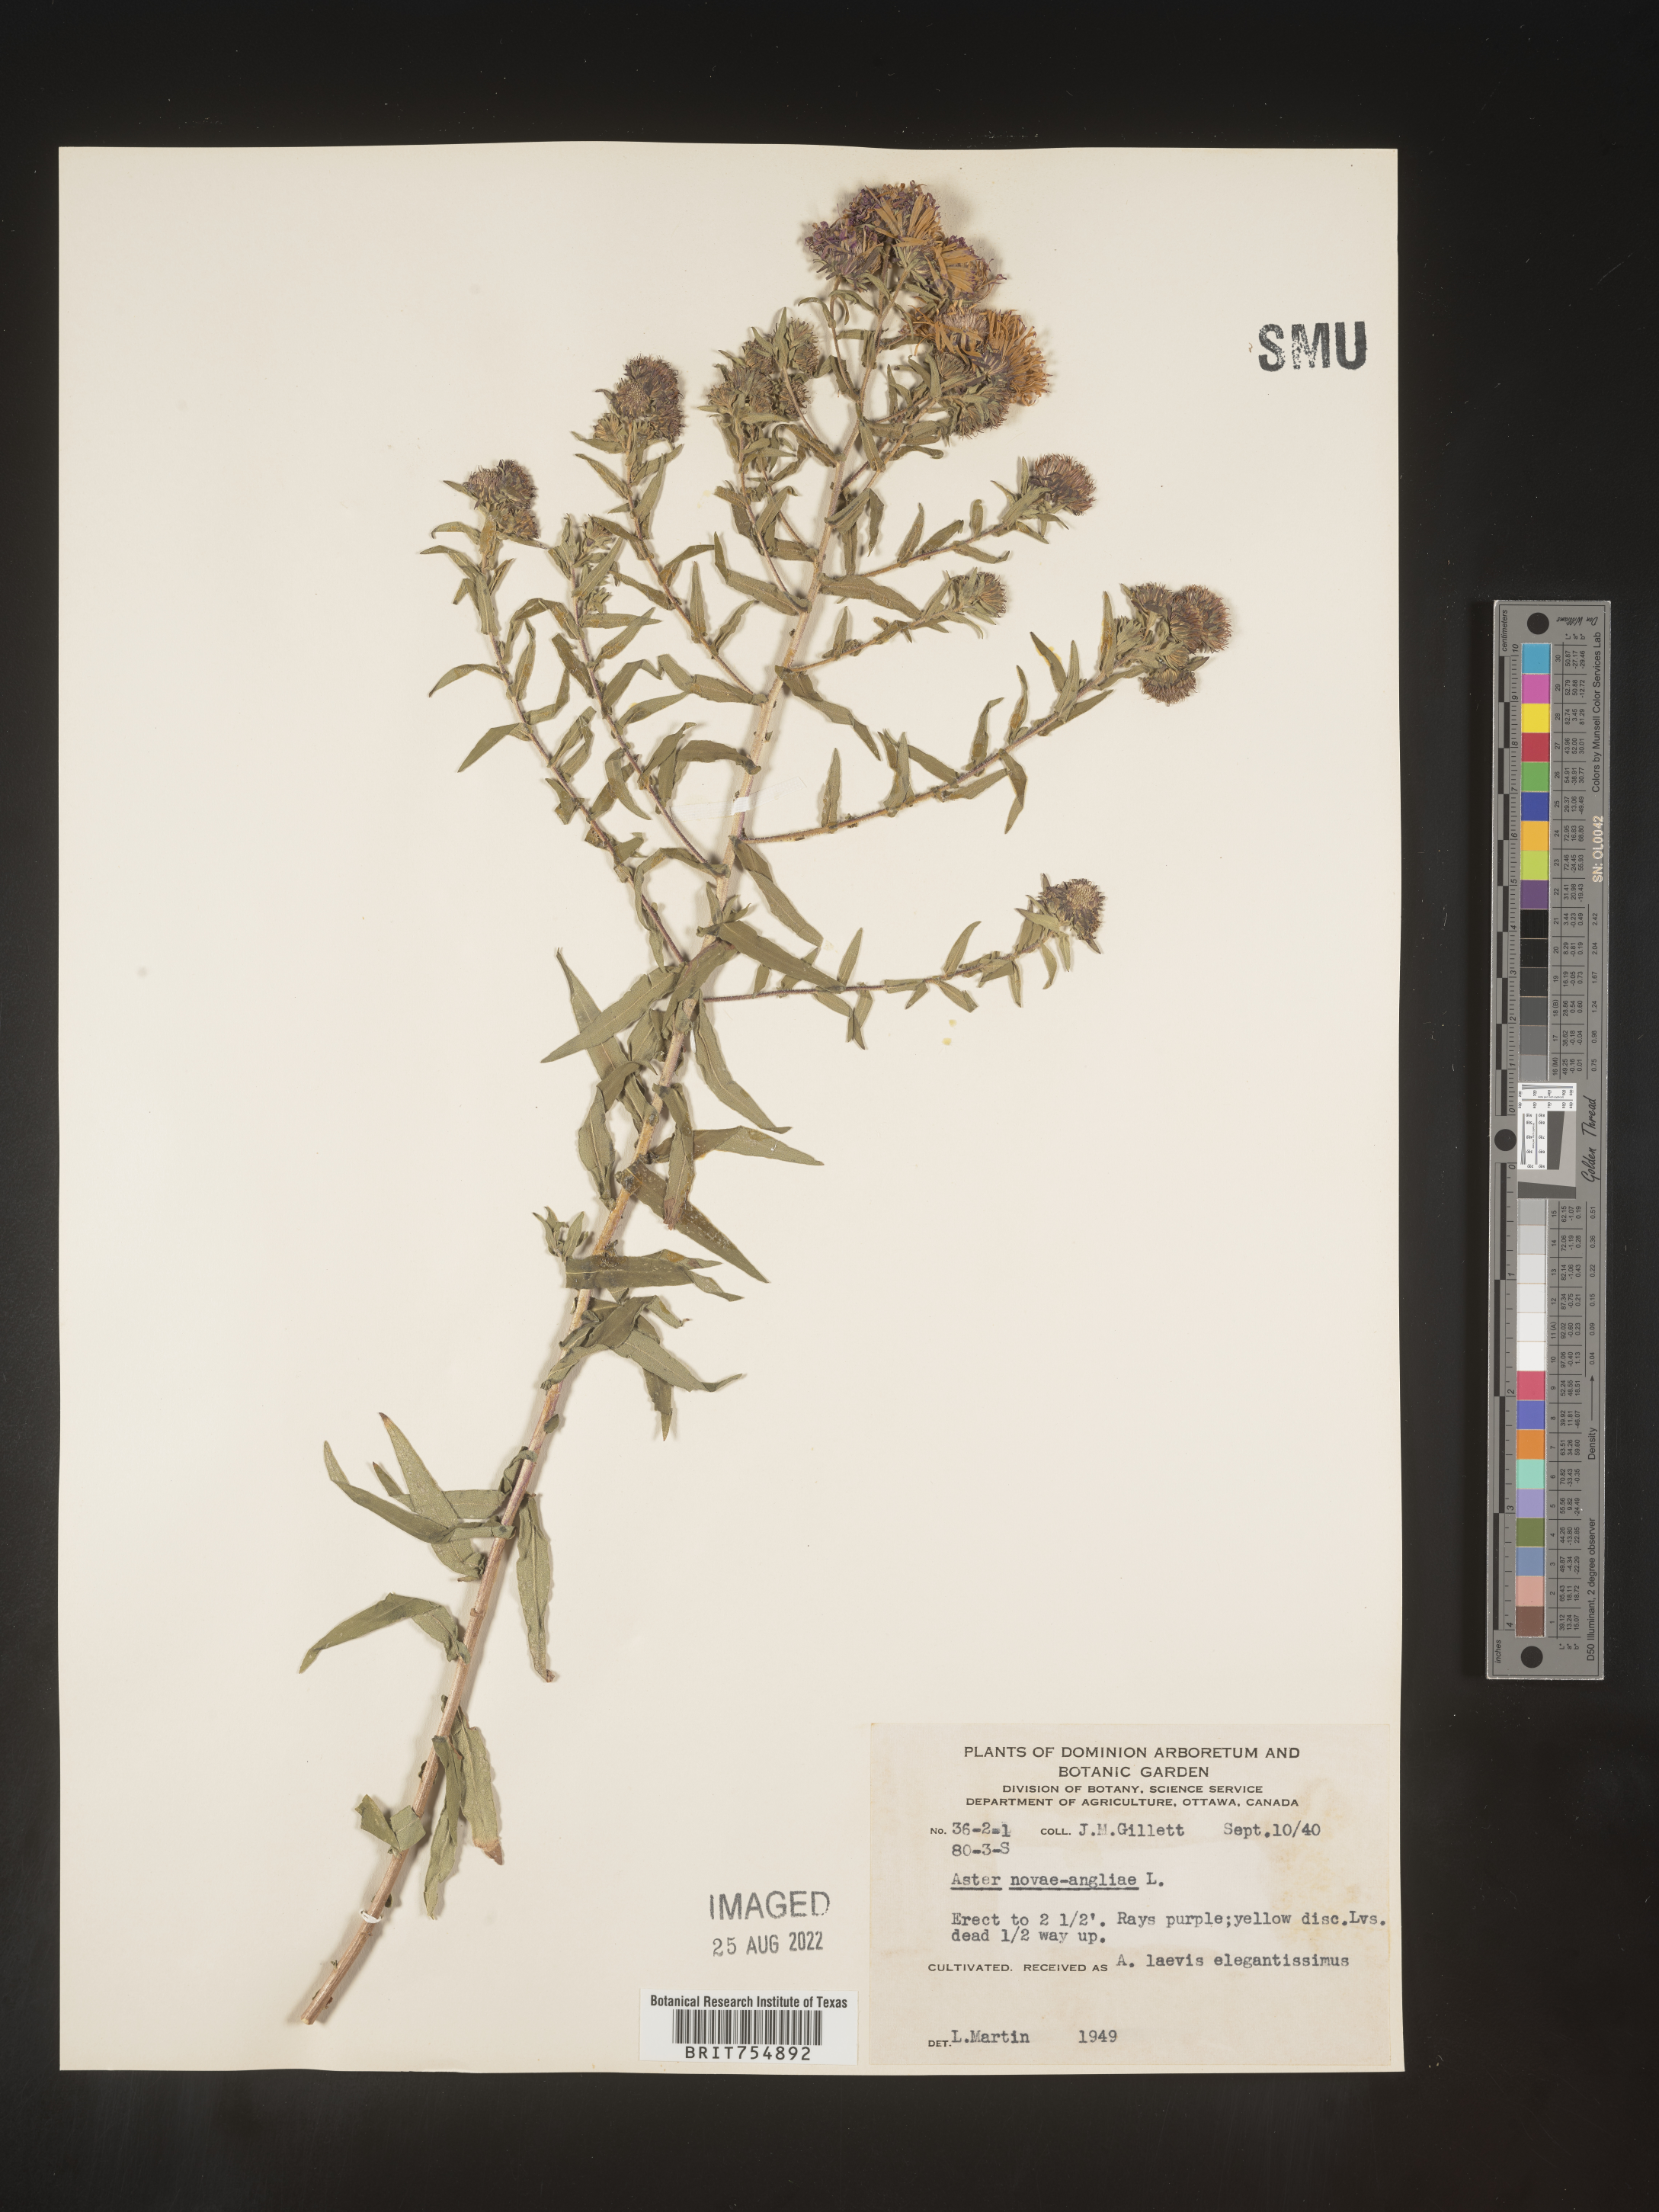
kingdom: Plantae
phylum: Tracheophyta
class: Magnoliopsida
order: Asterales
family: Asteraceae
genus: Symphyotrichum
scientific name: Symphyotrichum
